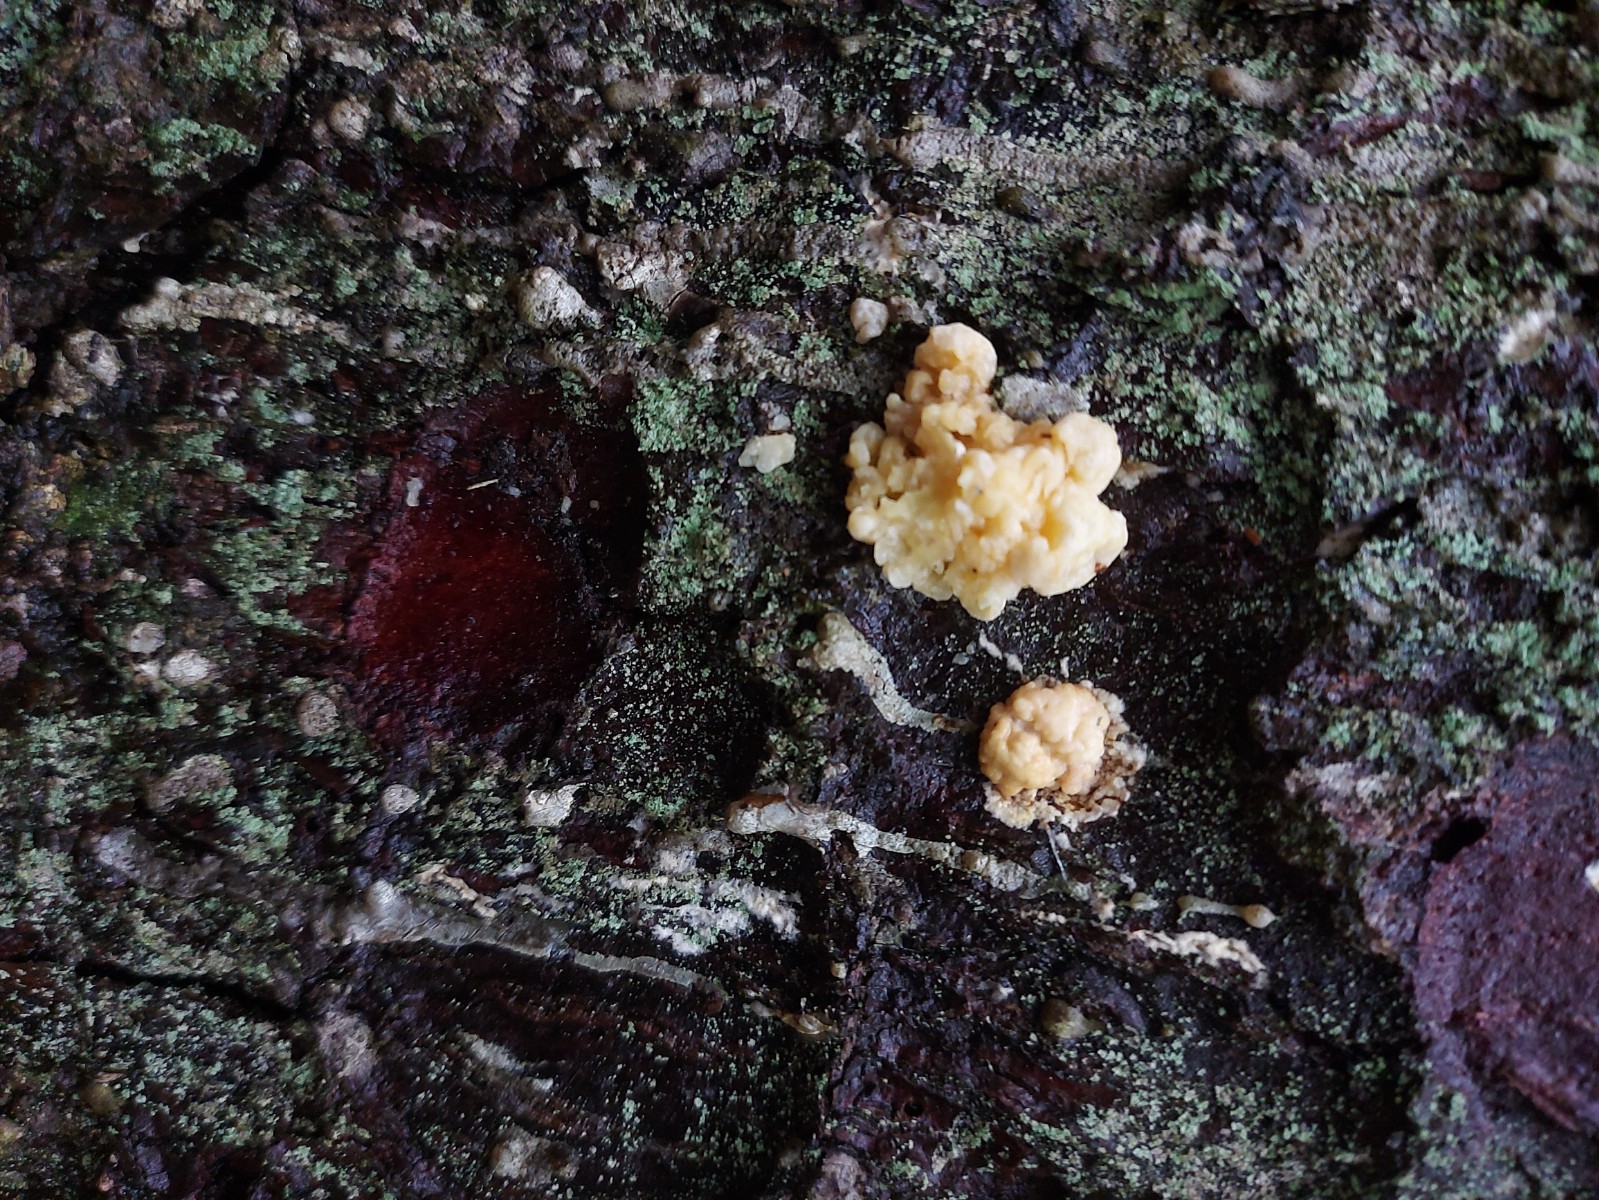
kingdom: Fungi
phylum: Ascomycota
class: Sordariomycetes
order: Xylariales
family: Hypoxylaceae
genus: Nodulisporium
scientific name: Nodulisporium cecidiogenes
